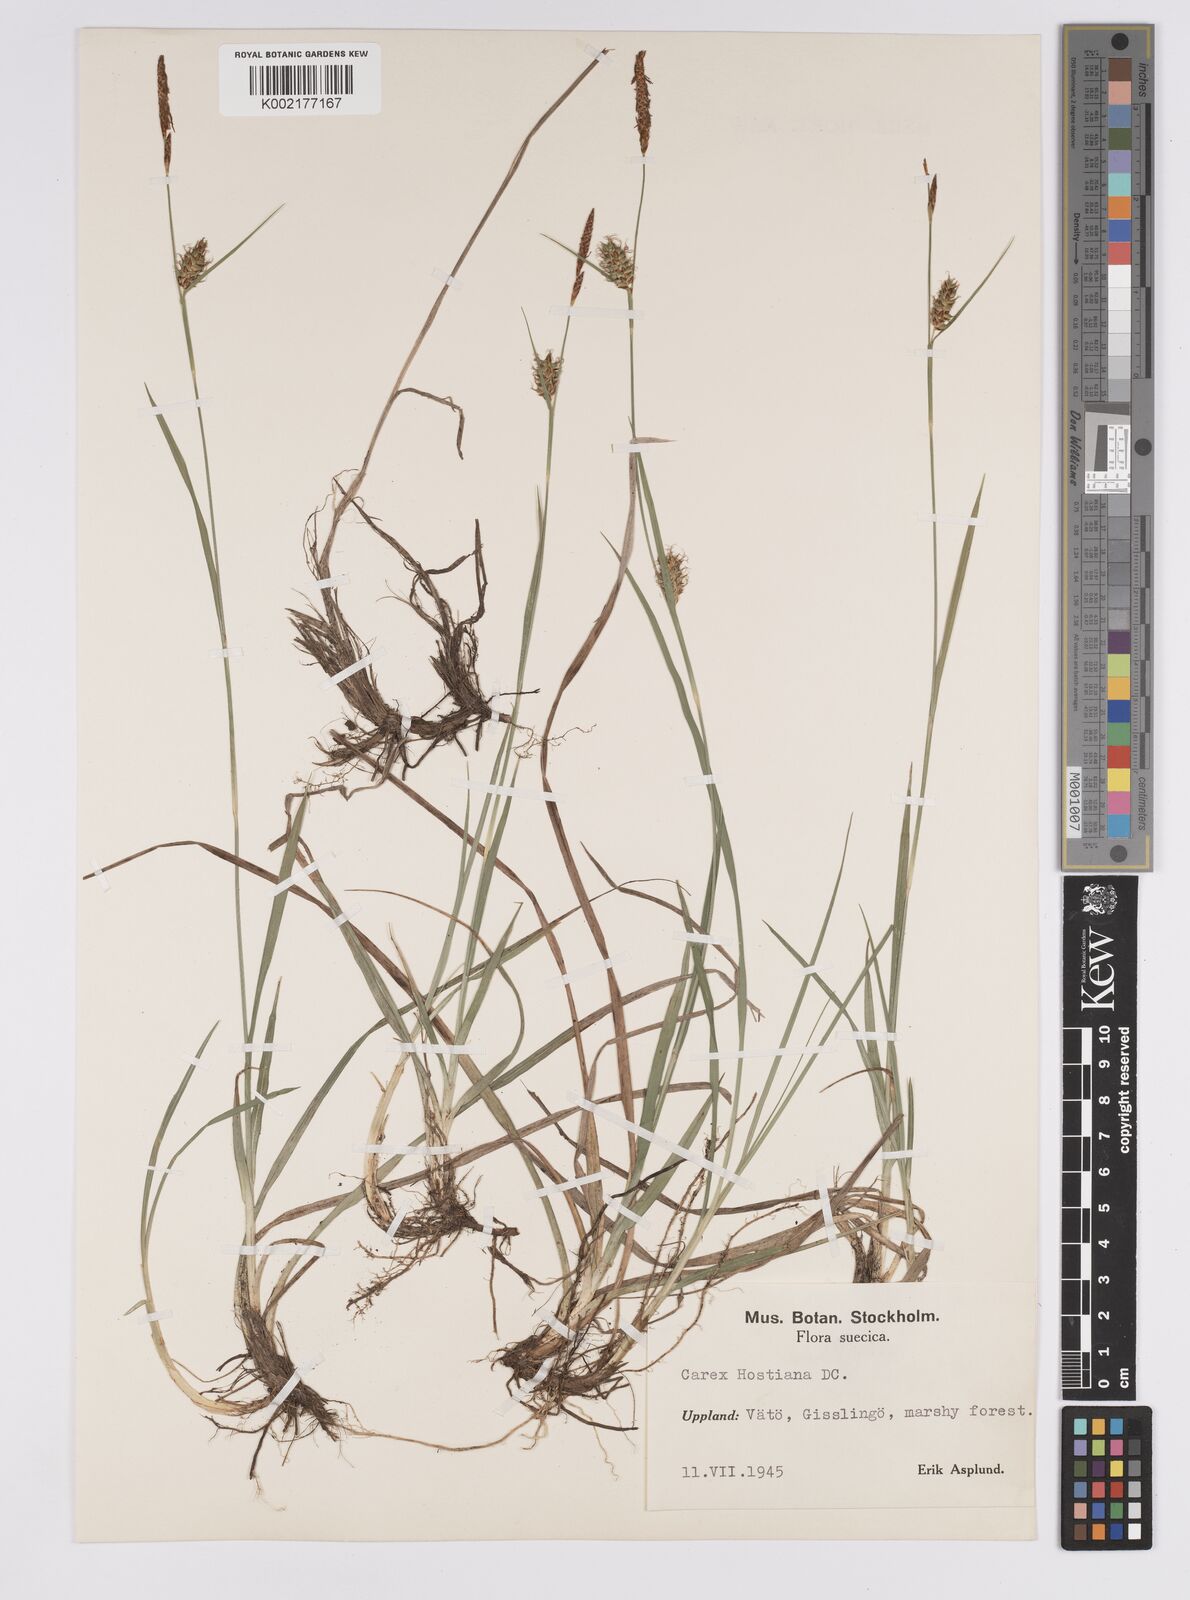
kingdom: Plantae
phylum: Tracheophyta
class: Liliopsida
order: Poales
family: Cyperaceae
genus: Carex
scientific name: Carex hostiana
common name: Tawny sedge
